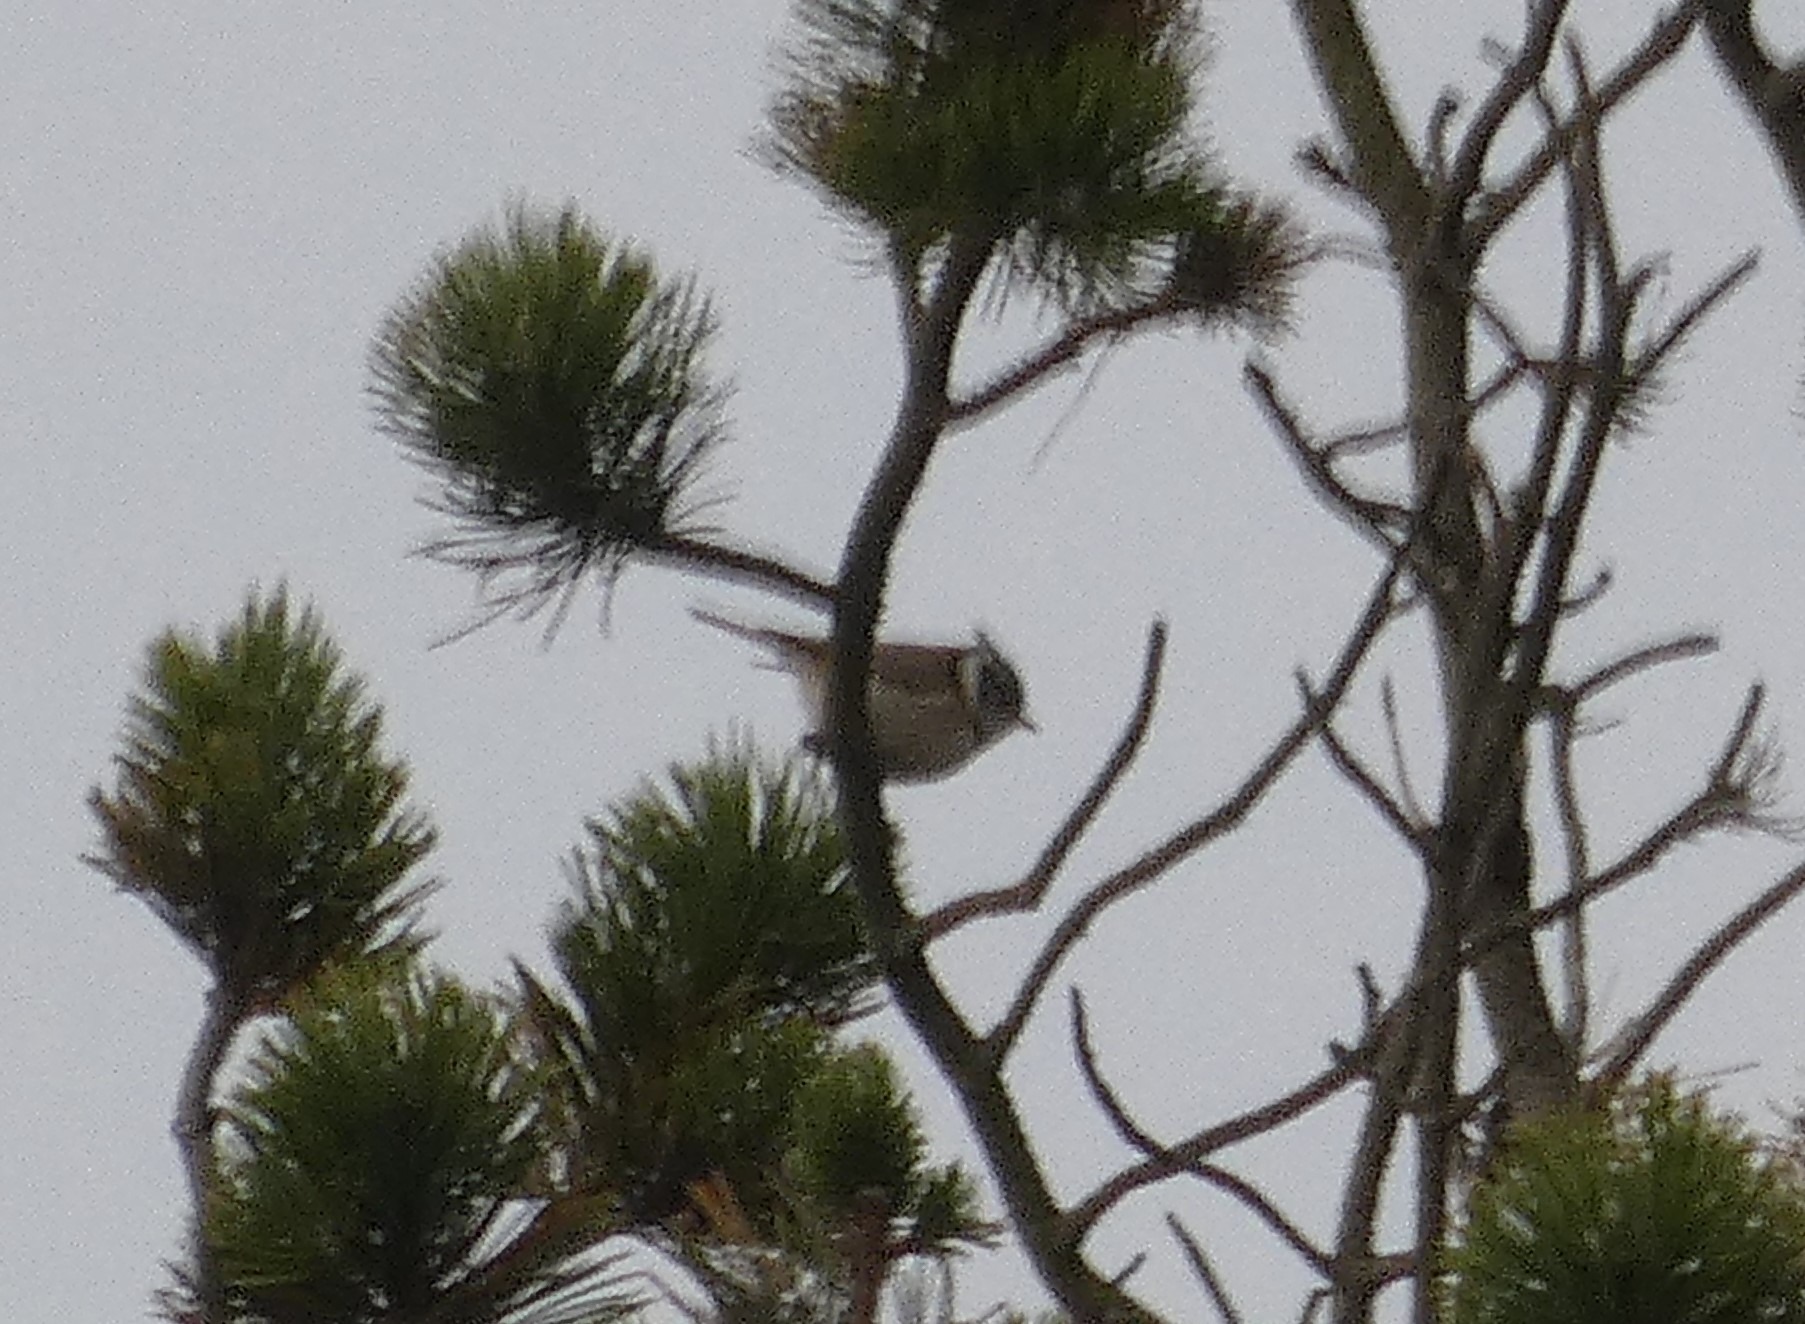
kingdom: Animalia
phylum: Chordata
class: Aves
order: Passeriformes
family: Paridae
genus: Lophophanes
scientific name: Lophophanes cristatus
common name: Topmejse
